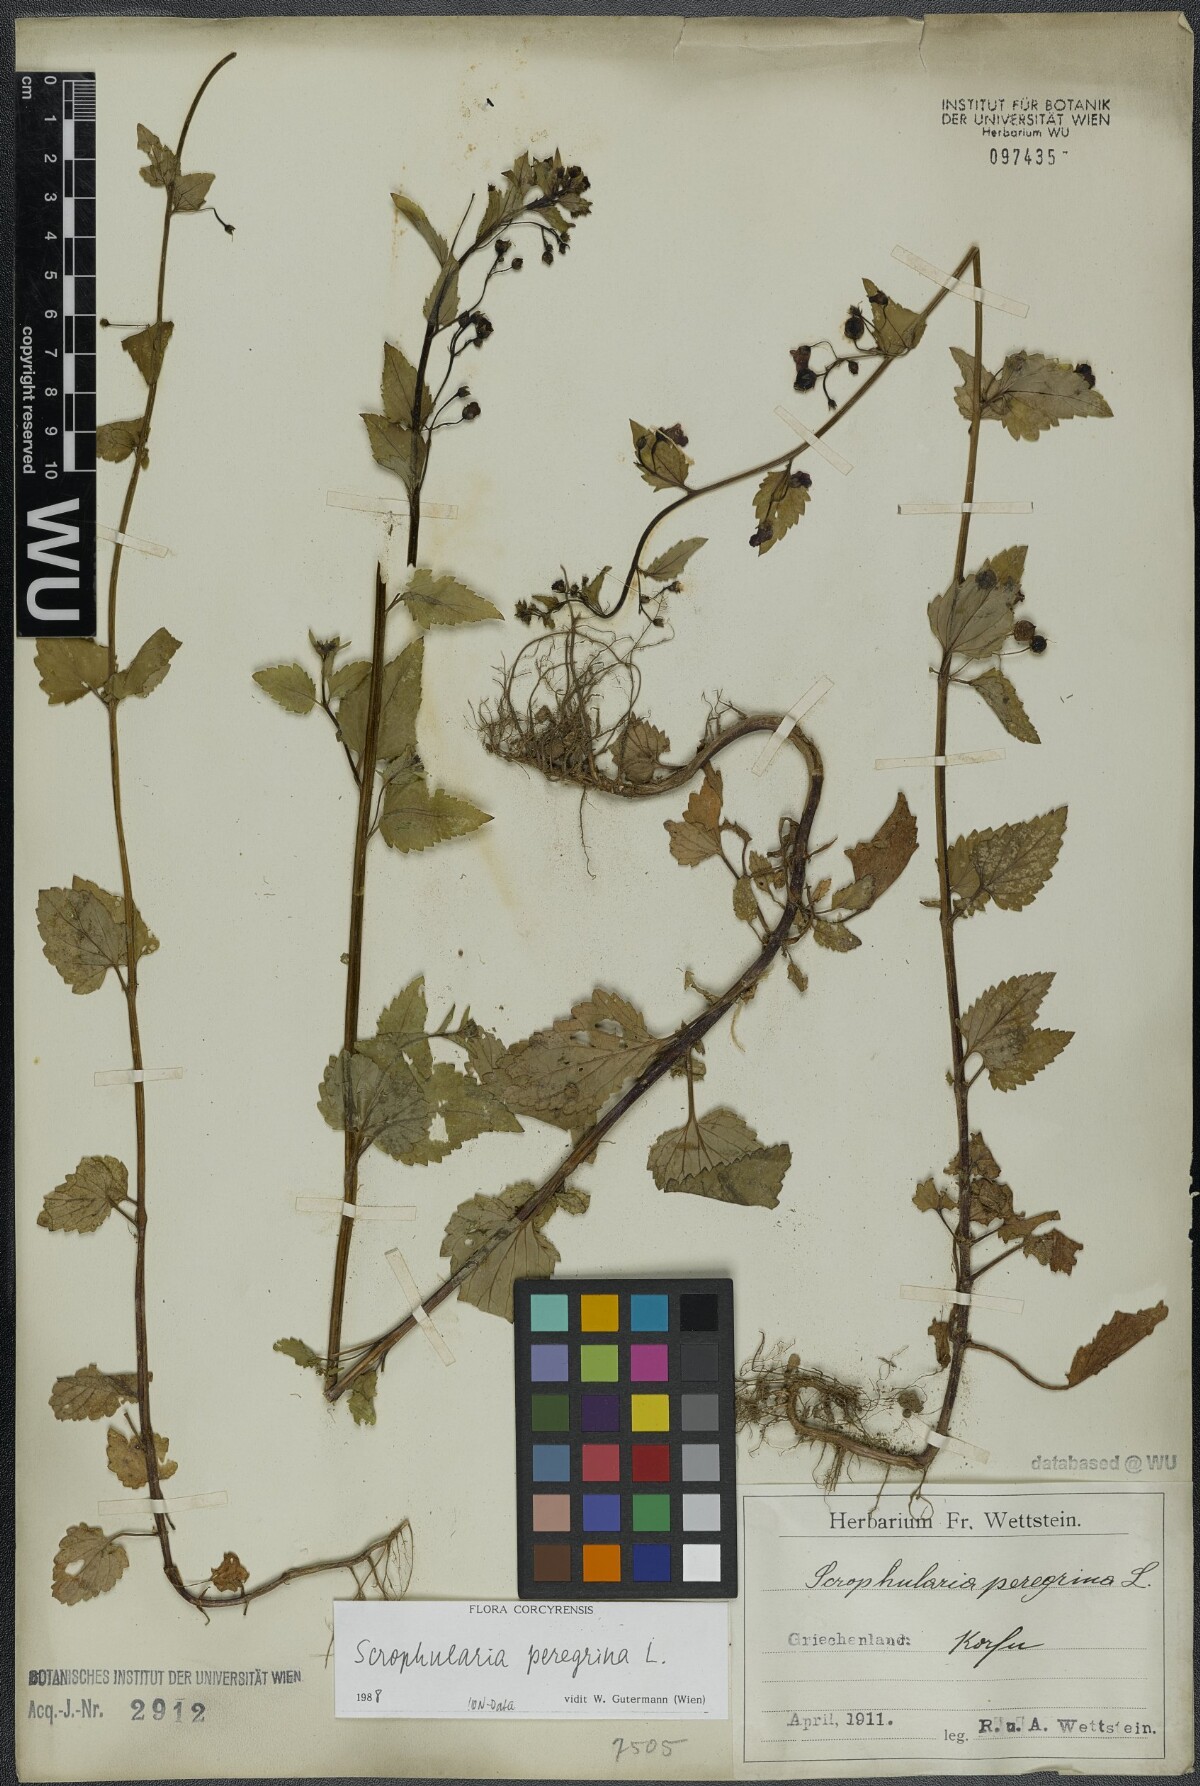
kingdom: Plantae
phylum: Tracheophyta
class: Magnoliopsida
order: Lamiales
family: Scrophulariaceae
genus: Scrophularia
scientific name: Scrophularia peregrina
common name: Mediterranean figwort
